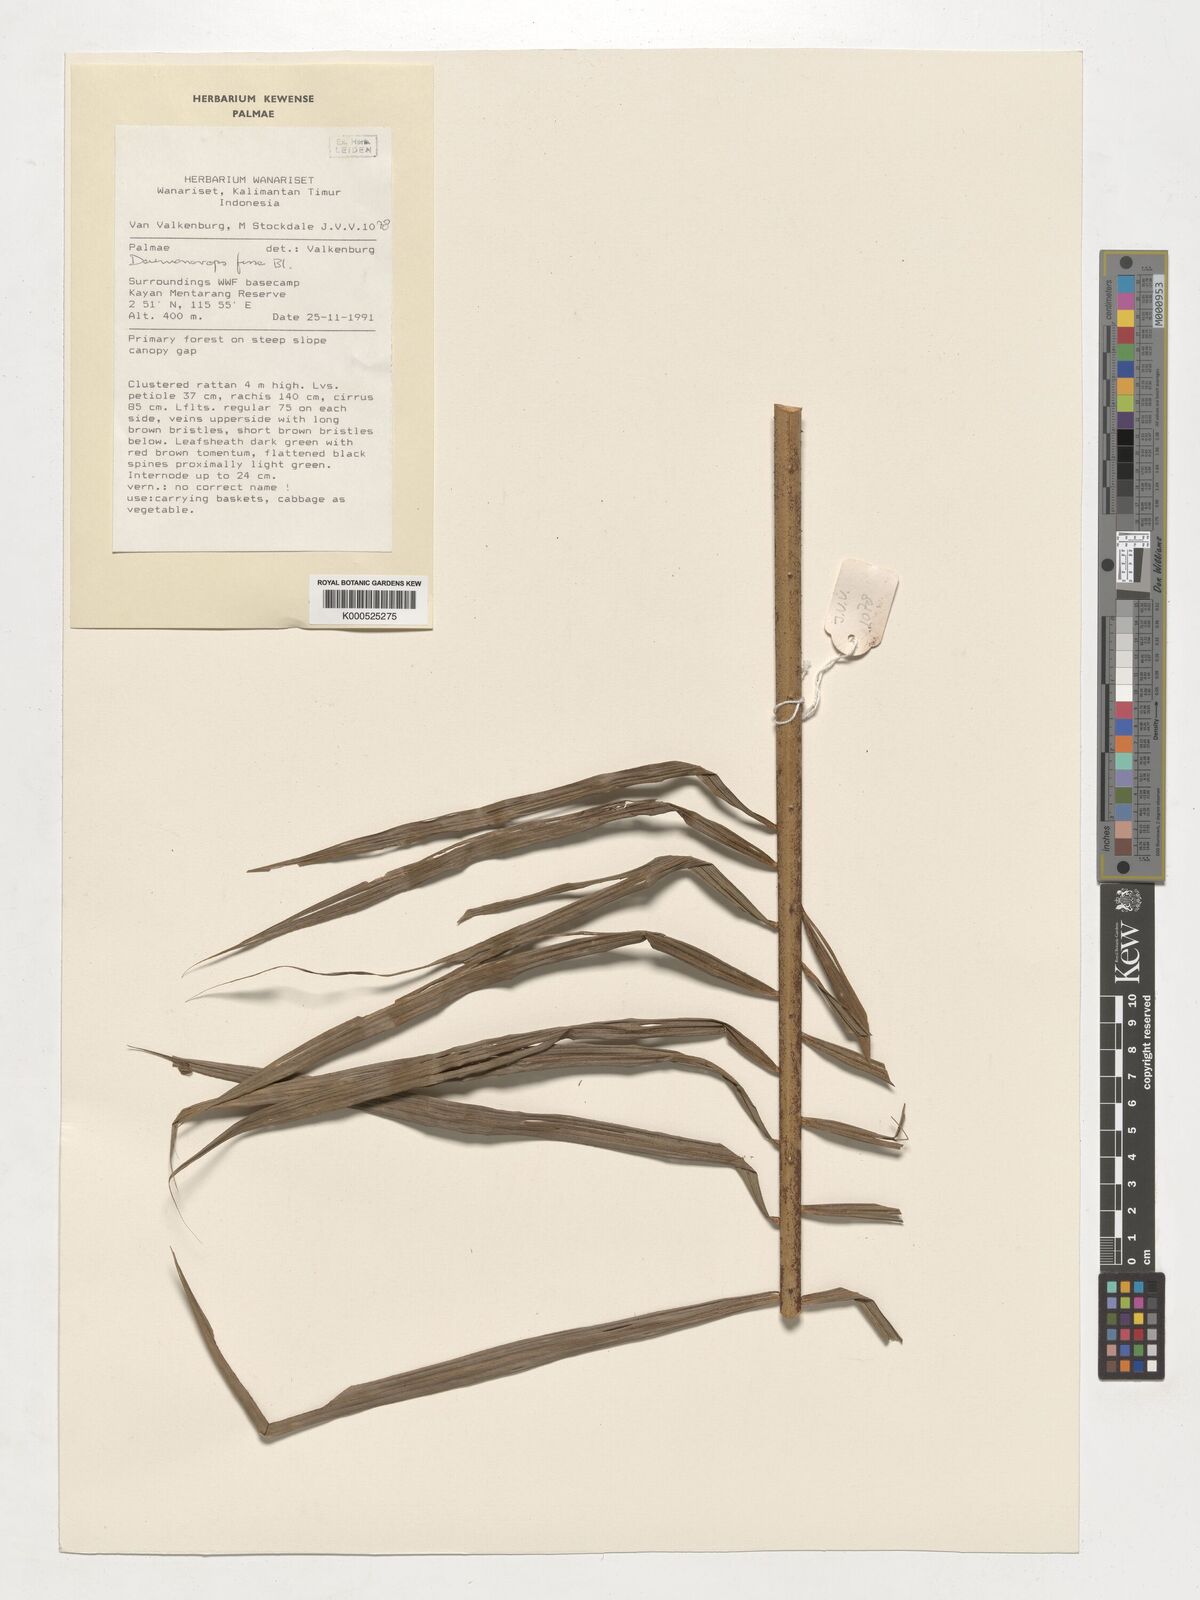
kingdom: Plantae
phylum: Tracheophyta
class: Liliopsida
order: Arecales
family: Arecaceae
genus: Calamus
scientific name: Calamus melanochaetes
